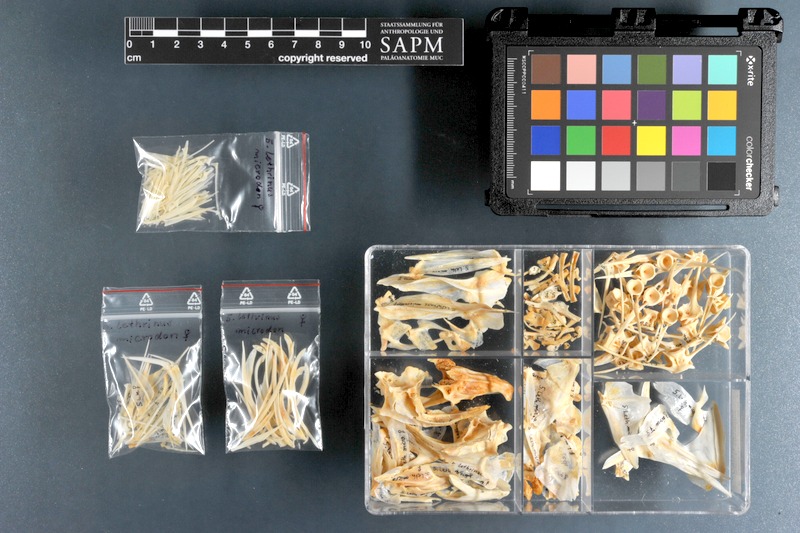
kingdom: Animalia
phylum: Chordata
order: Perciformes
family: Lethrinidae
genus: Lethrinus
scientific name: Lethrinus microdon
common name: Smalltooth emperor
